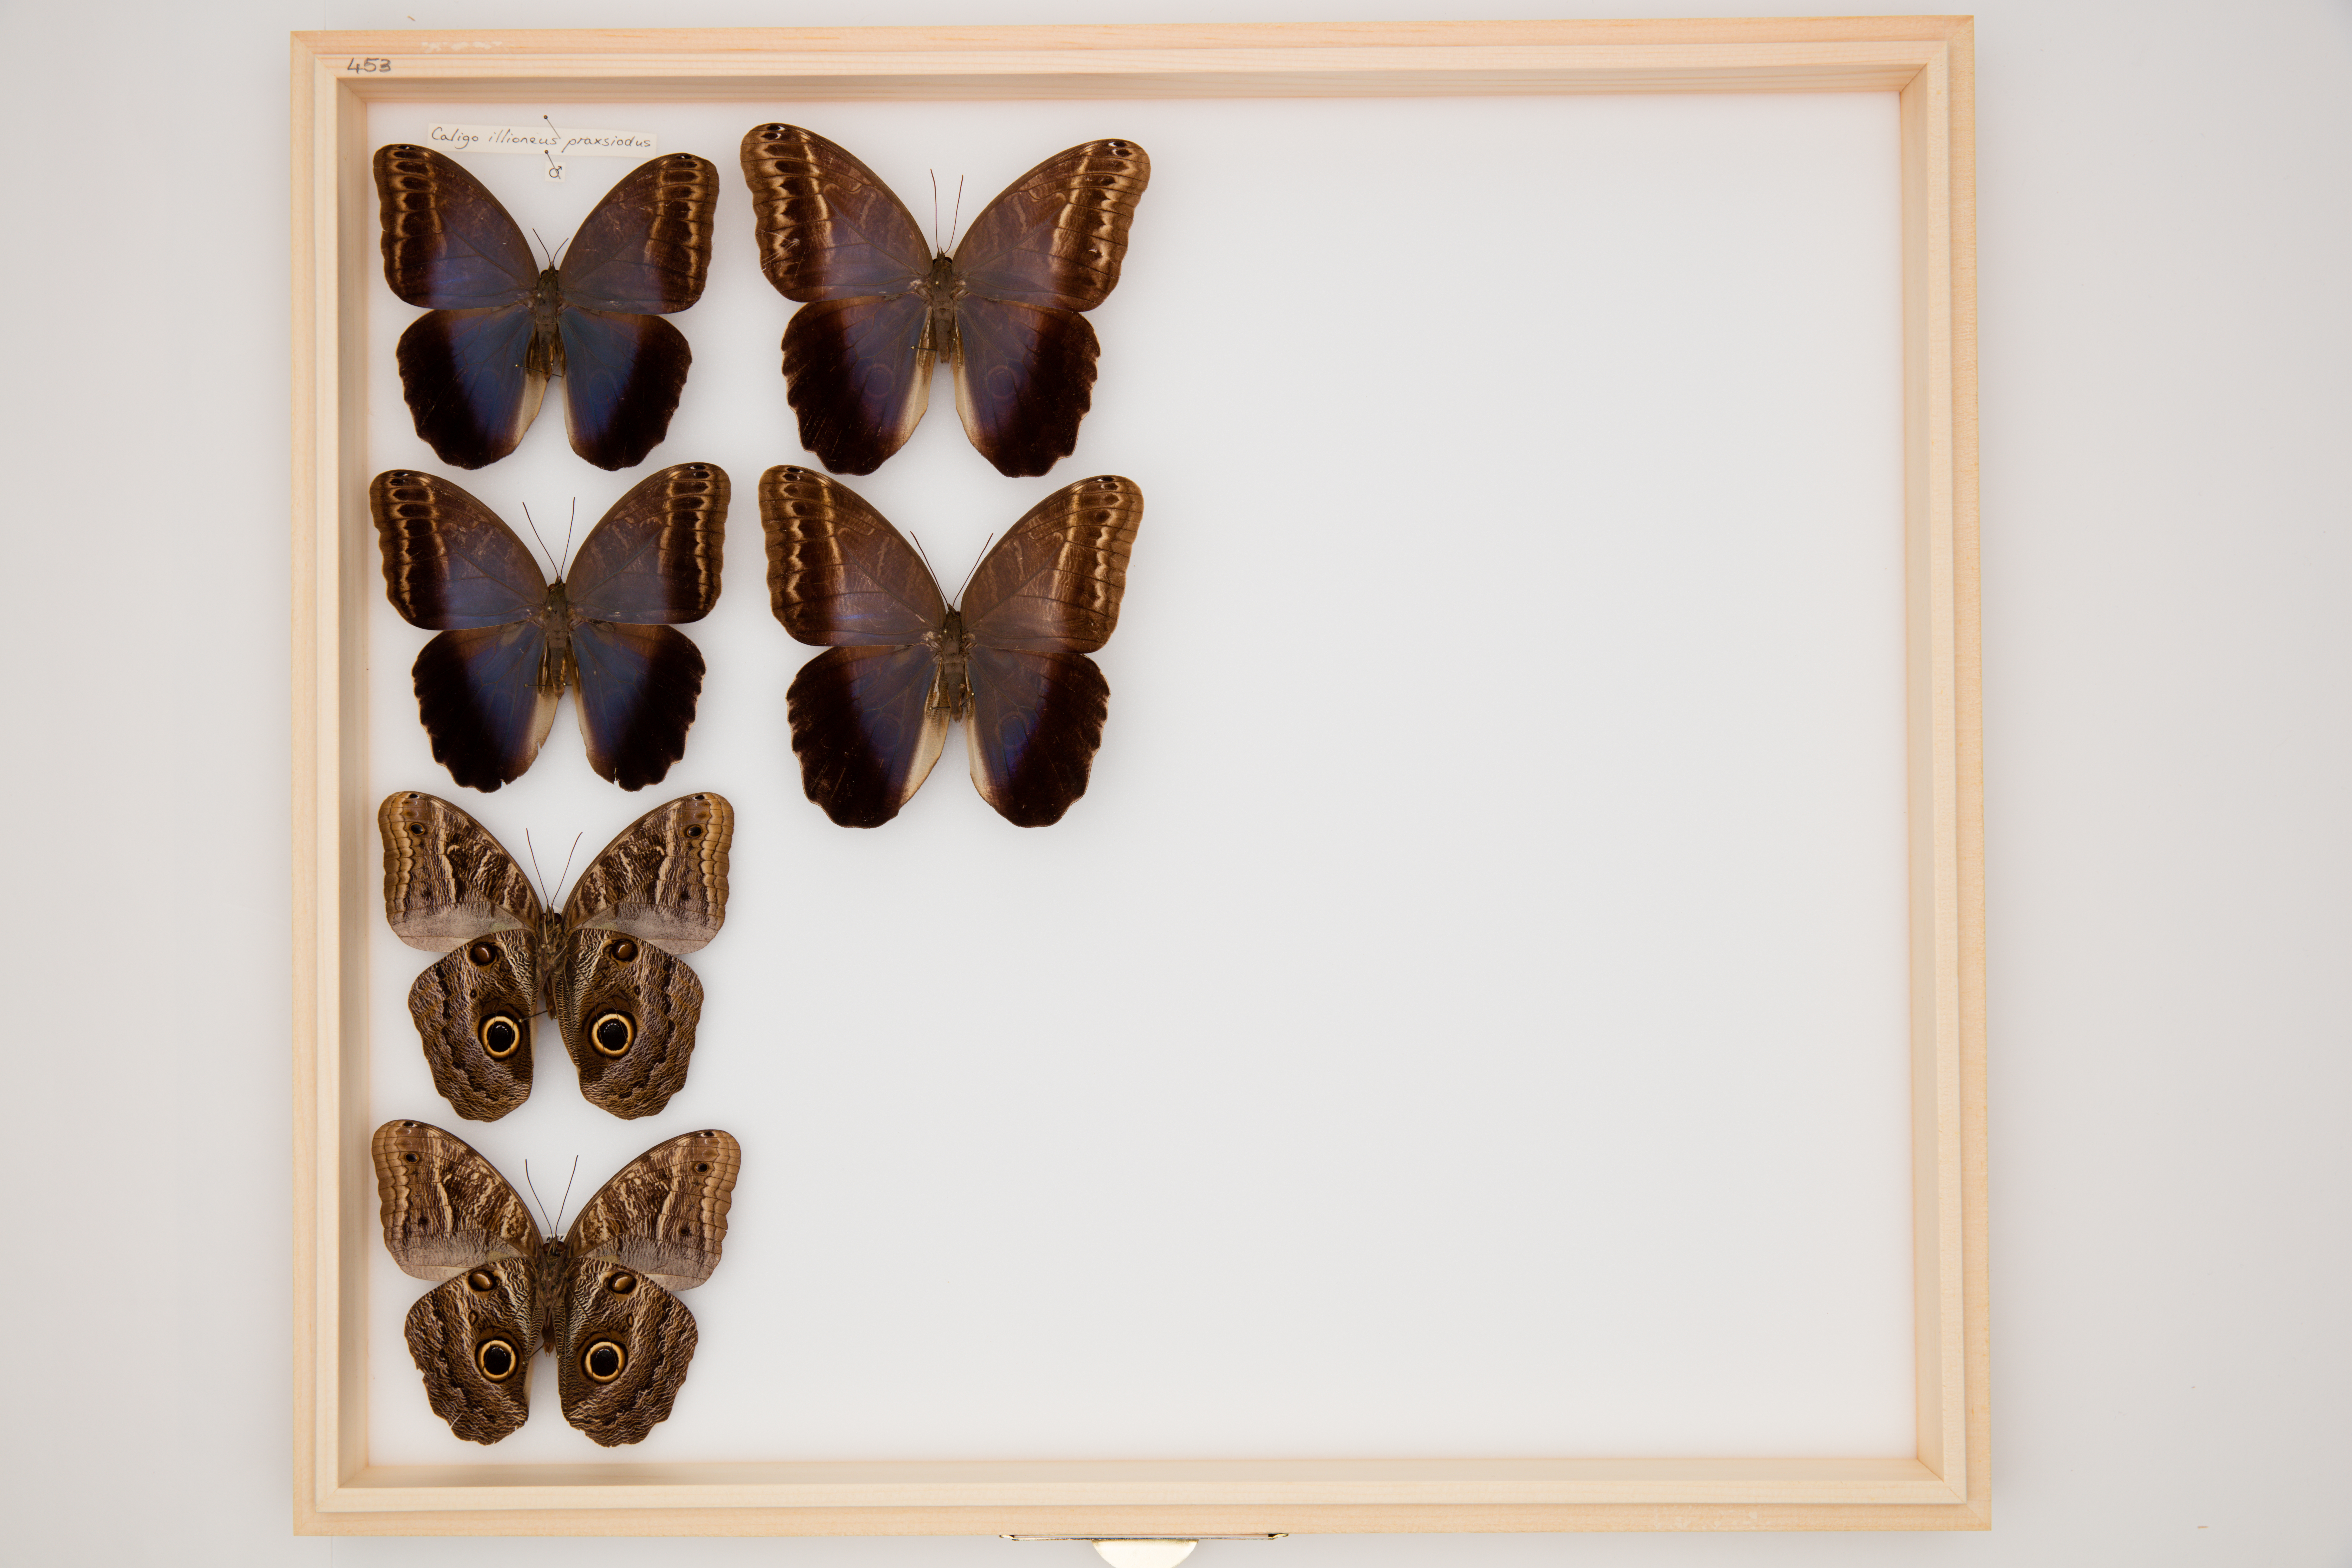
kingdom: Animalia
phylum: Arthropoda
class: Insecta
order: Lepidoptera
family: Nymphalidae
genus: Caligo
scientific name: Caligo illioneus
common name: Dusky owl-butterfly
